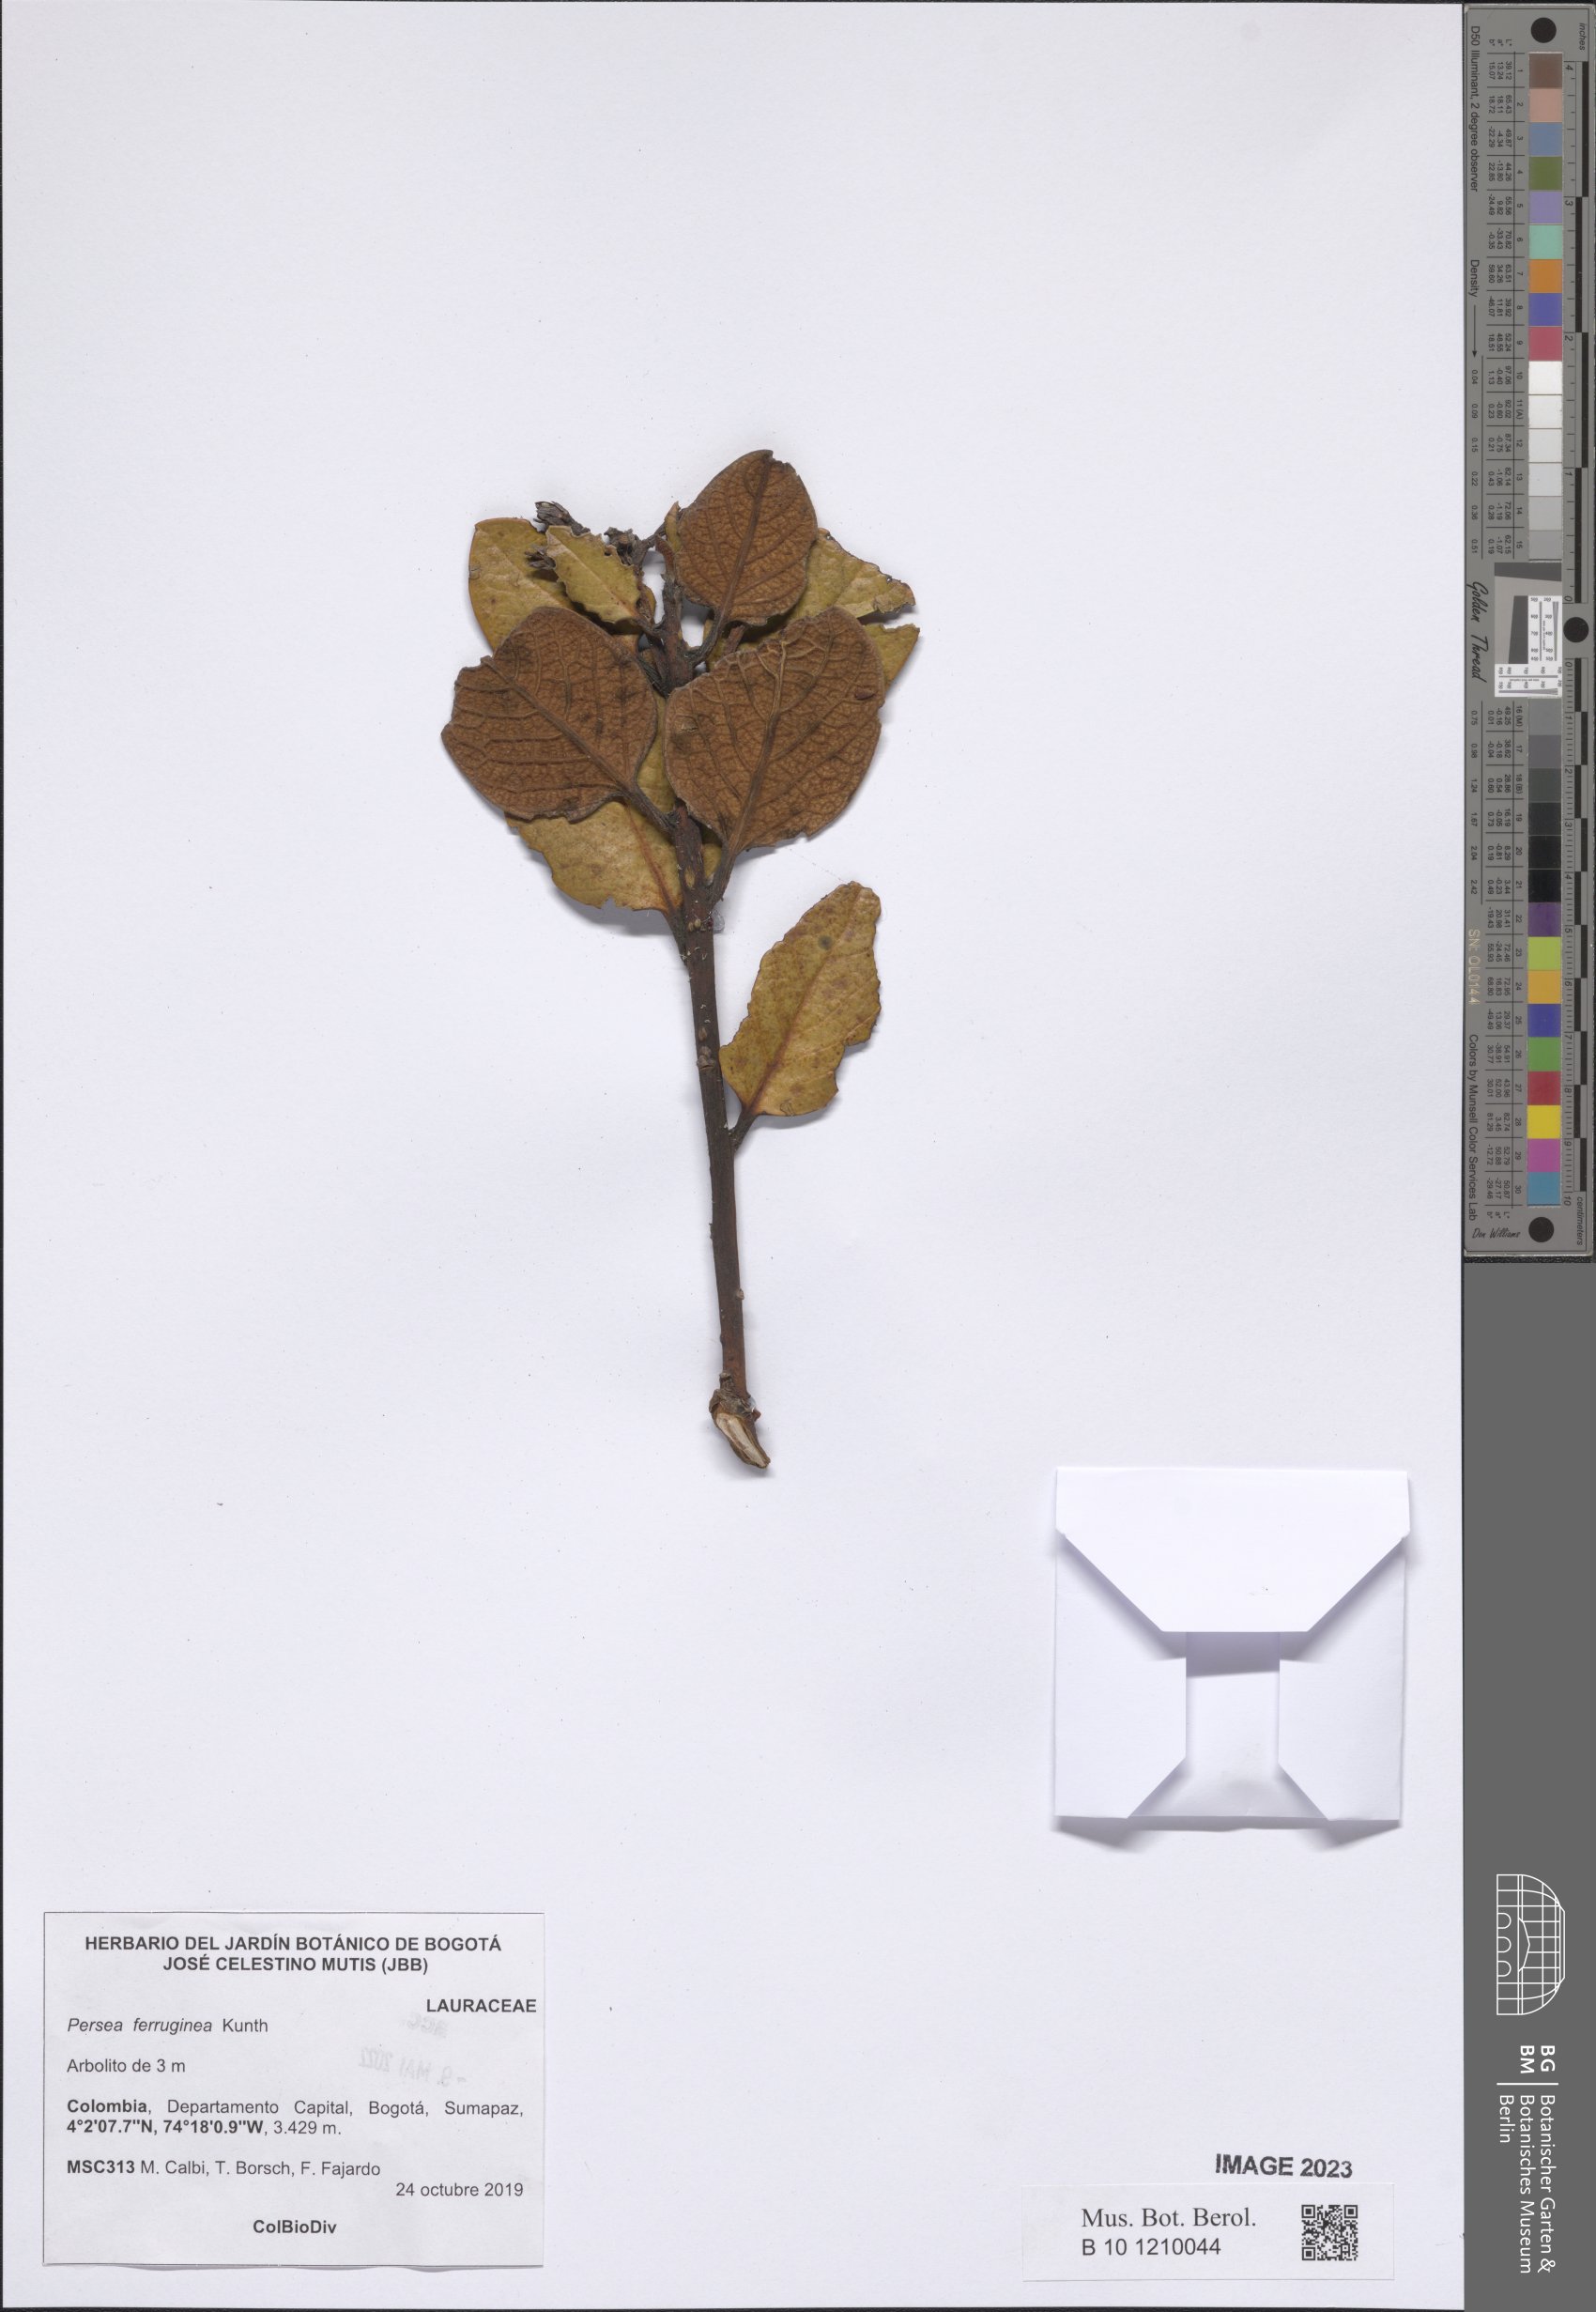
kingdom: Plantae
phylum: Tracheophyta
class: Magnoliopsida
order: Laurales
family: Lauraceae
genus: Persea
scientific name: Persea ferruginea
